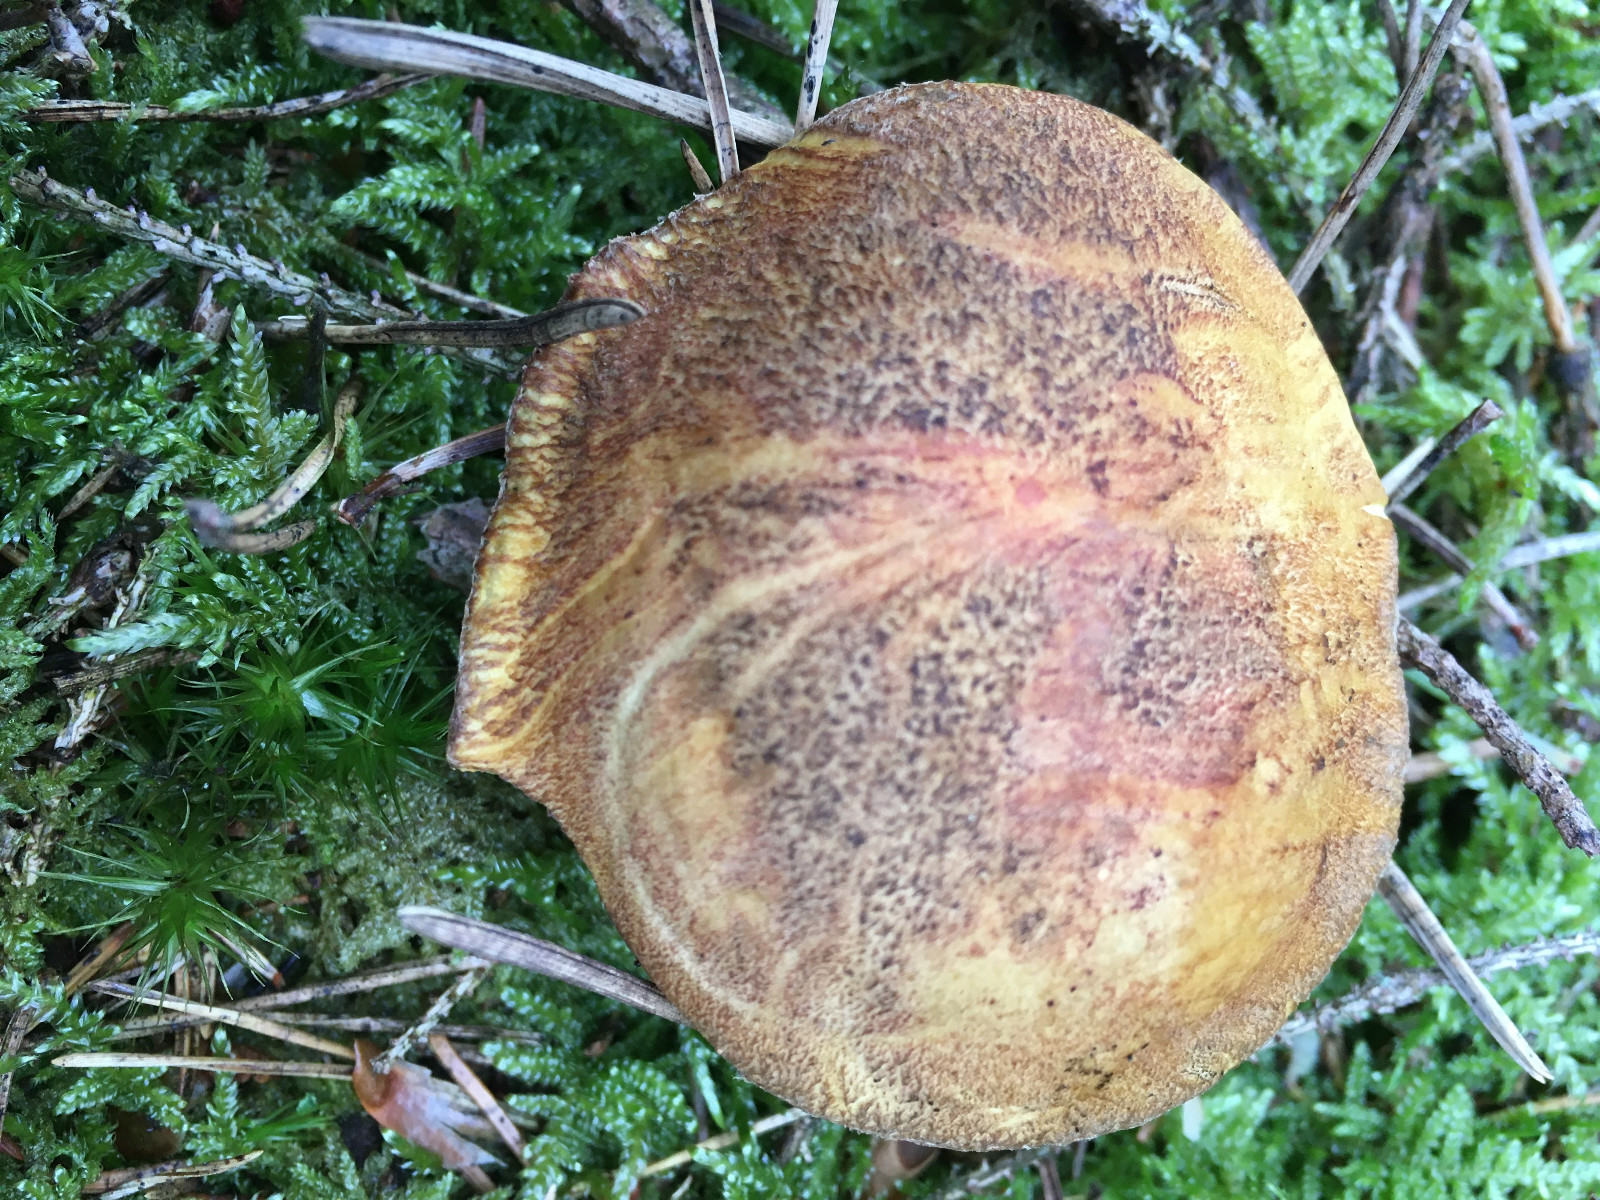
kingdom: Fungi
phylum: Basidiomycota
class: Agaricomycetes
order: Boletales
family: Suillaceae
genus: Suillus
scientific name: Suillus variegatus
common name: broget slimrørhat
